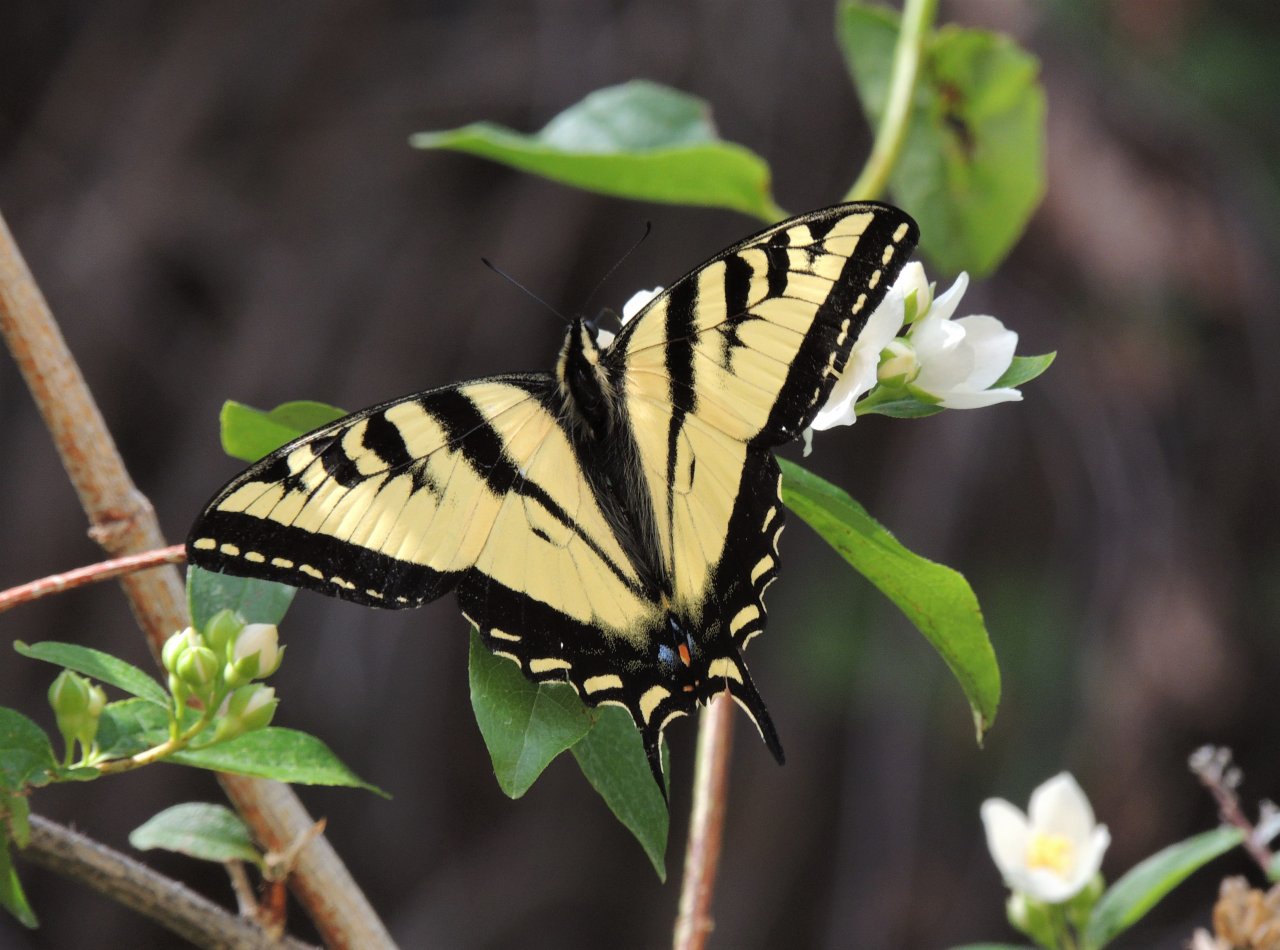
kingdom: Animalia
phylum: Arthropoda
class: Insecta
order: Lepidoptera
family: Papilionidae
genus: Pterourus
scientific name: Pterourus rutulus
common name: Western Tiger Swallowtail
